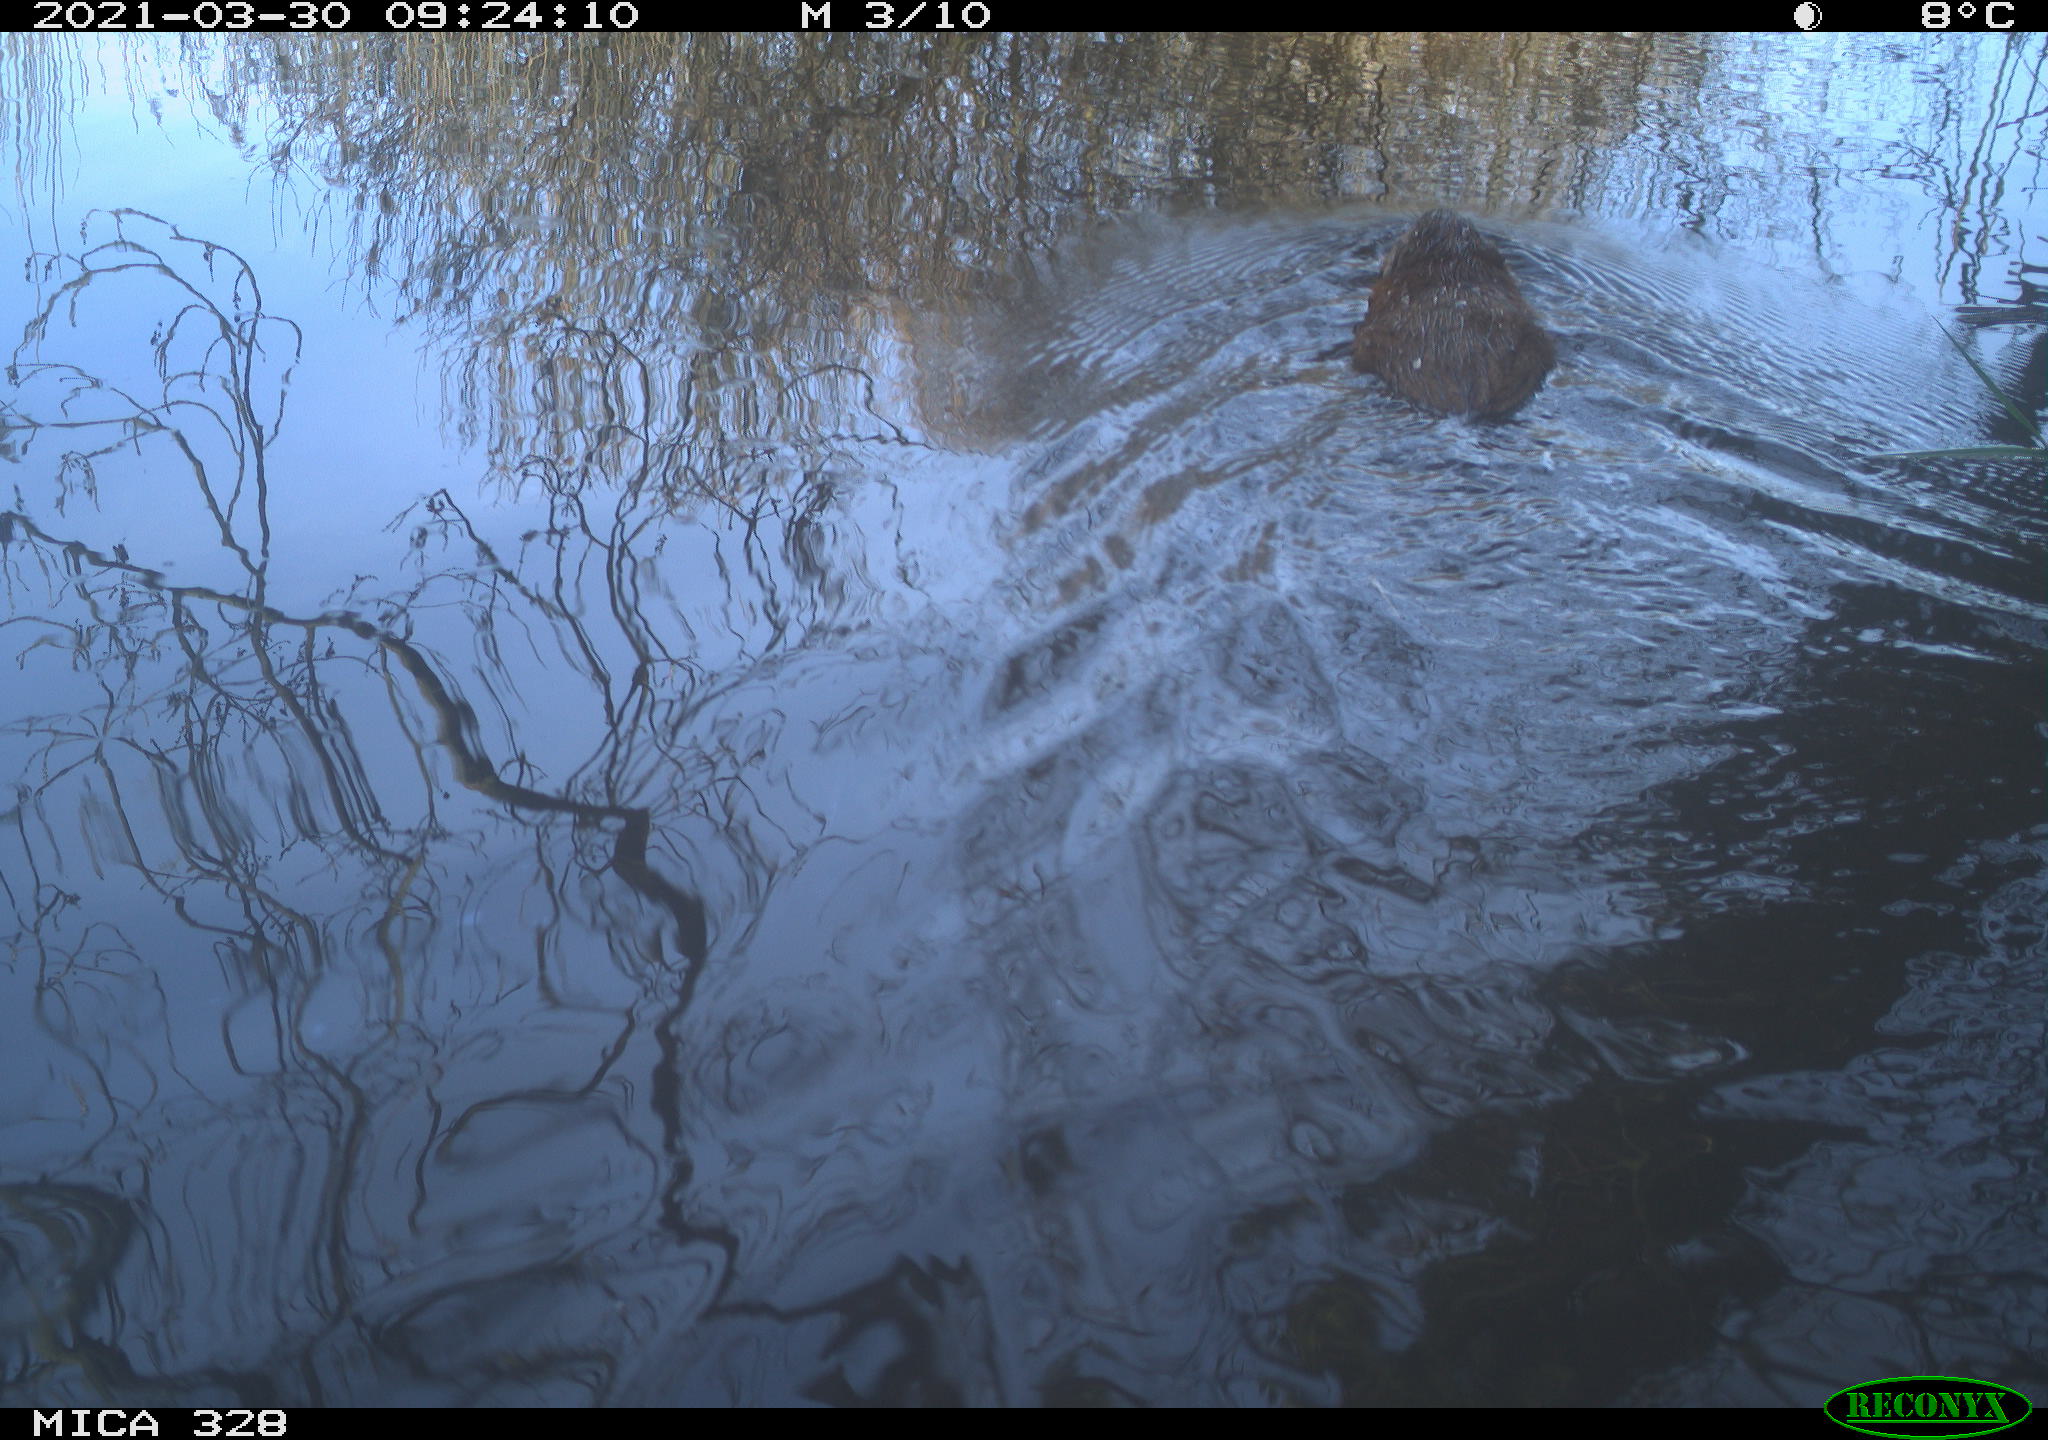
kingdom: Animalia
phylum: Chordata
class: Mammalia
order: Rodentia
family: Cricetidae
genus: Ondatra
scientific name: Ondatra zibethicus
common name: Muskrat
